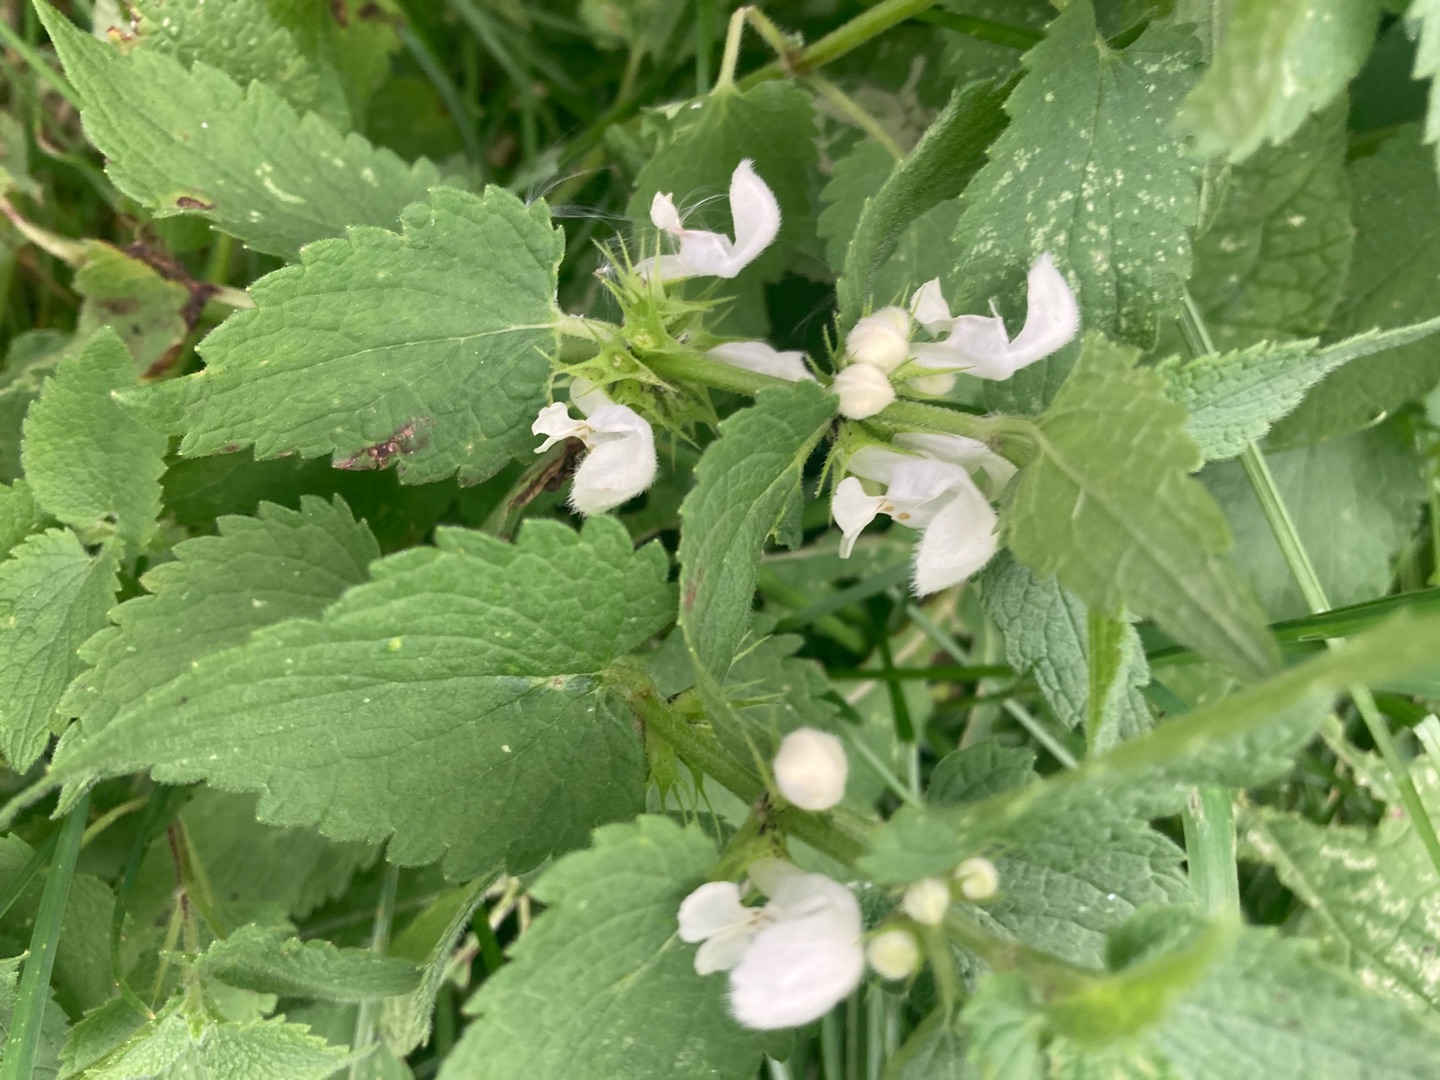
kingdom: Plantae
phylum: Tracheophyta
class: Magnoliopsida
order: Lamiales
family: Lamiaceae
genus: Lamium
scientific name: Lamium album
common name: Døvnælde
